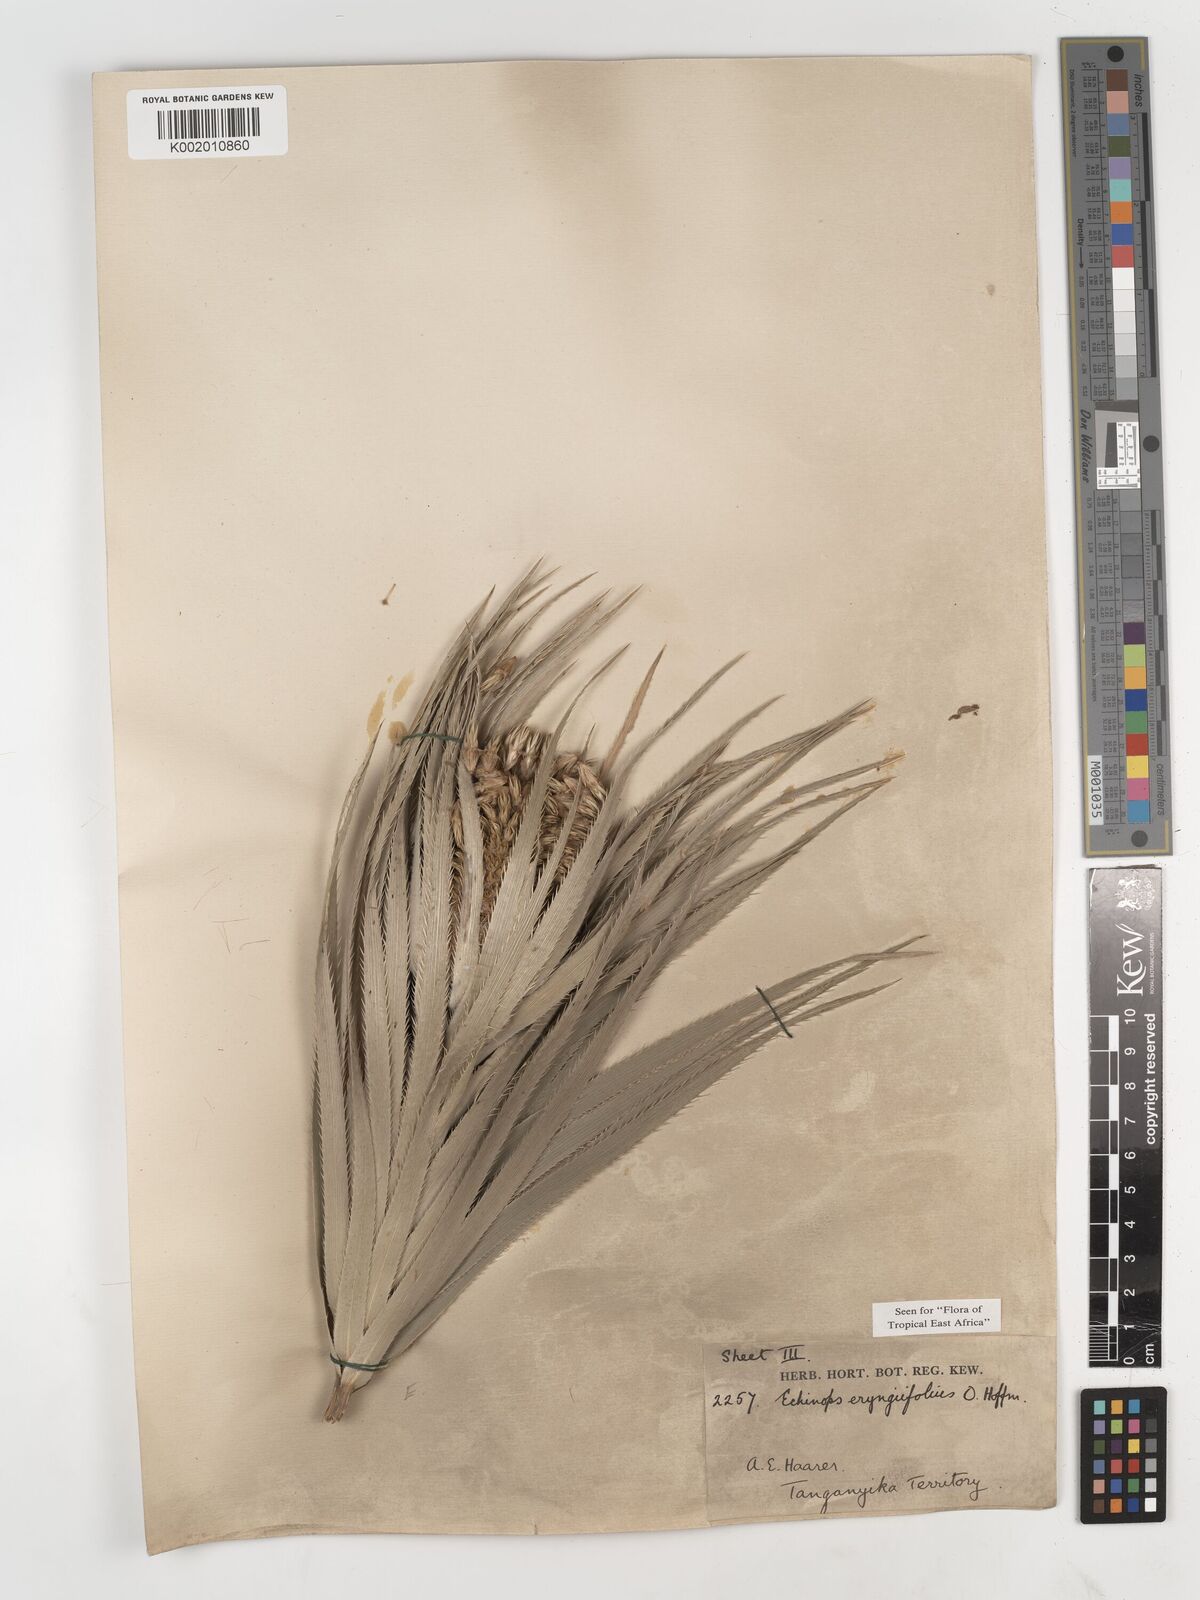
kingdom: Plantae
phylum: Tracheophyta
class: Magnoliopsida
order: Asterales
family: Asteraceae
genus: Echinops
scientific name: Echinops eryngiifolius
